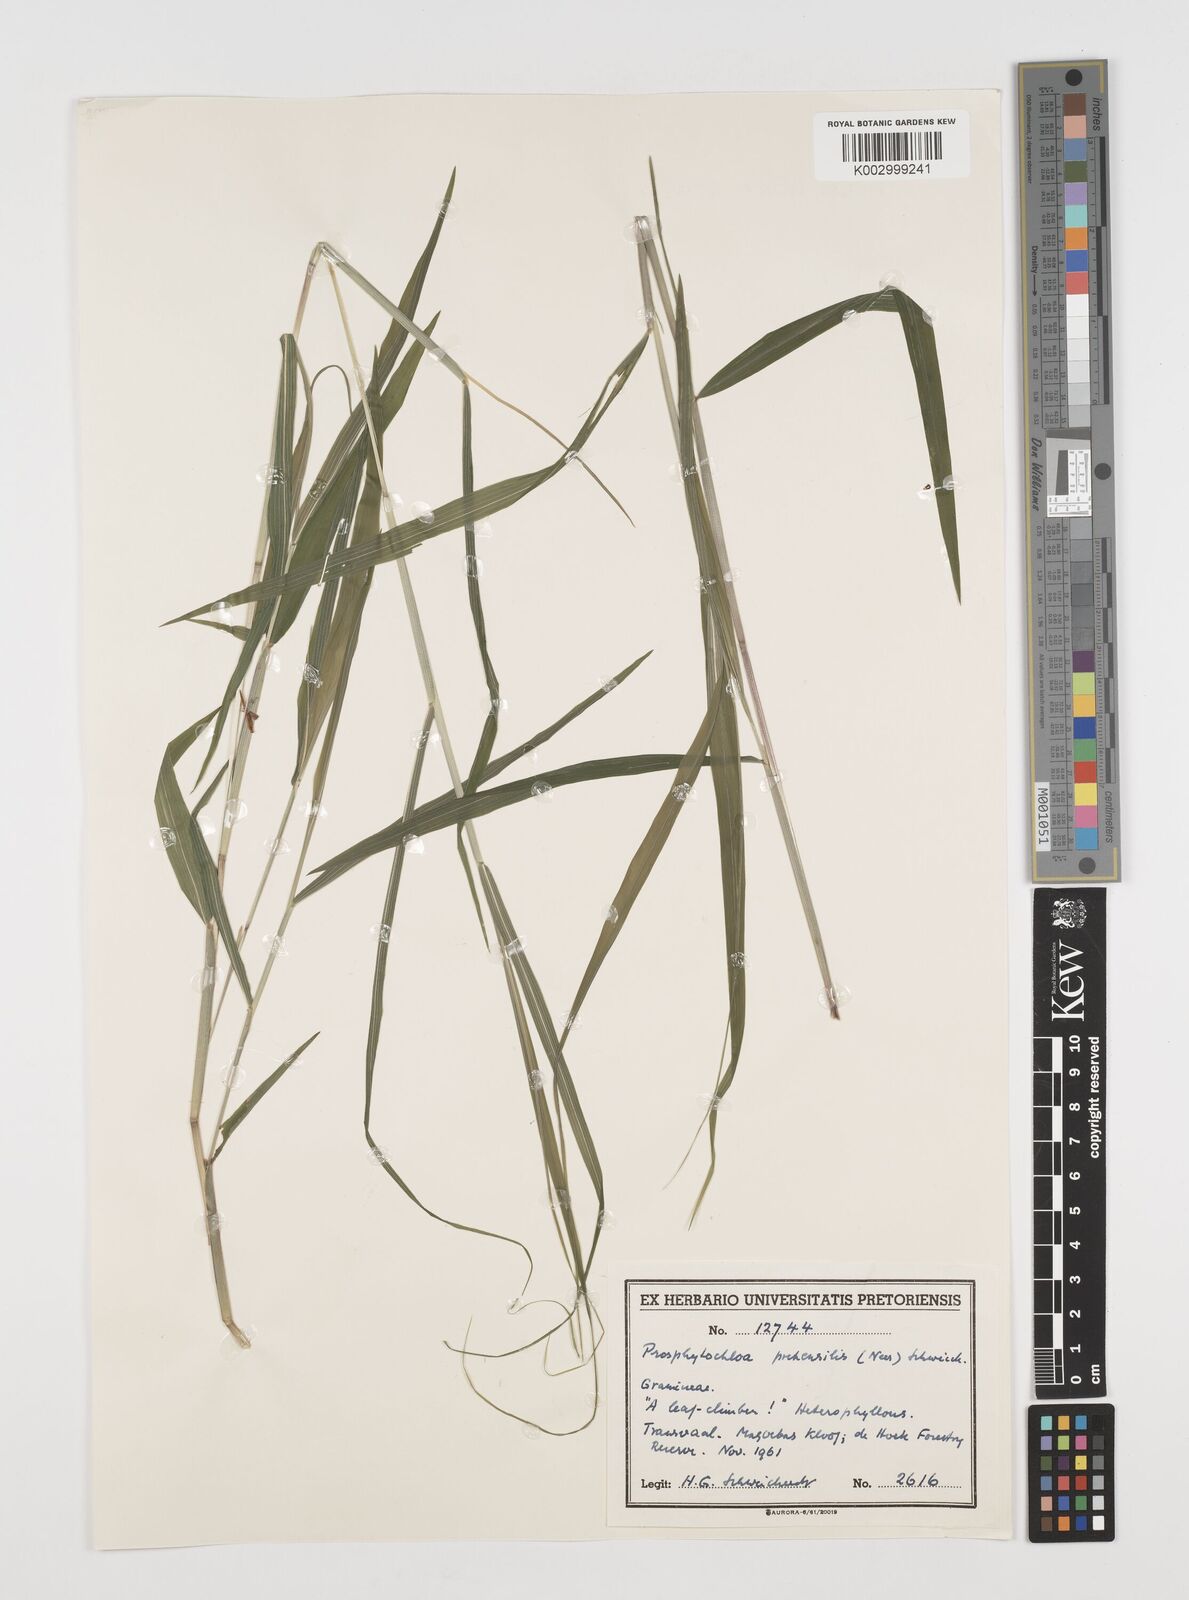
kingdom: Plantae
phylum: Tracheophyta
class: Liliopsida
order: Poales
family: Poaceae
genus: Prosphytochloa
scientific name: Prosphytochloa prehensilis
